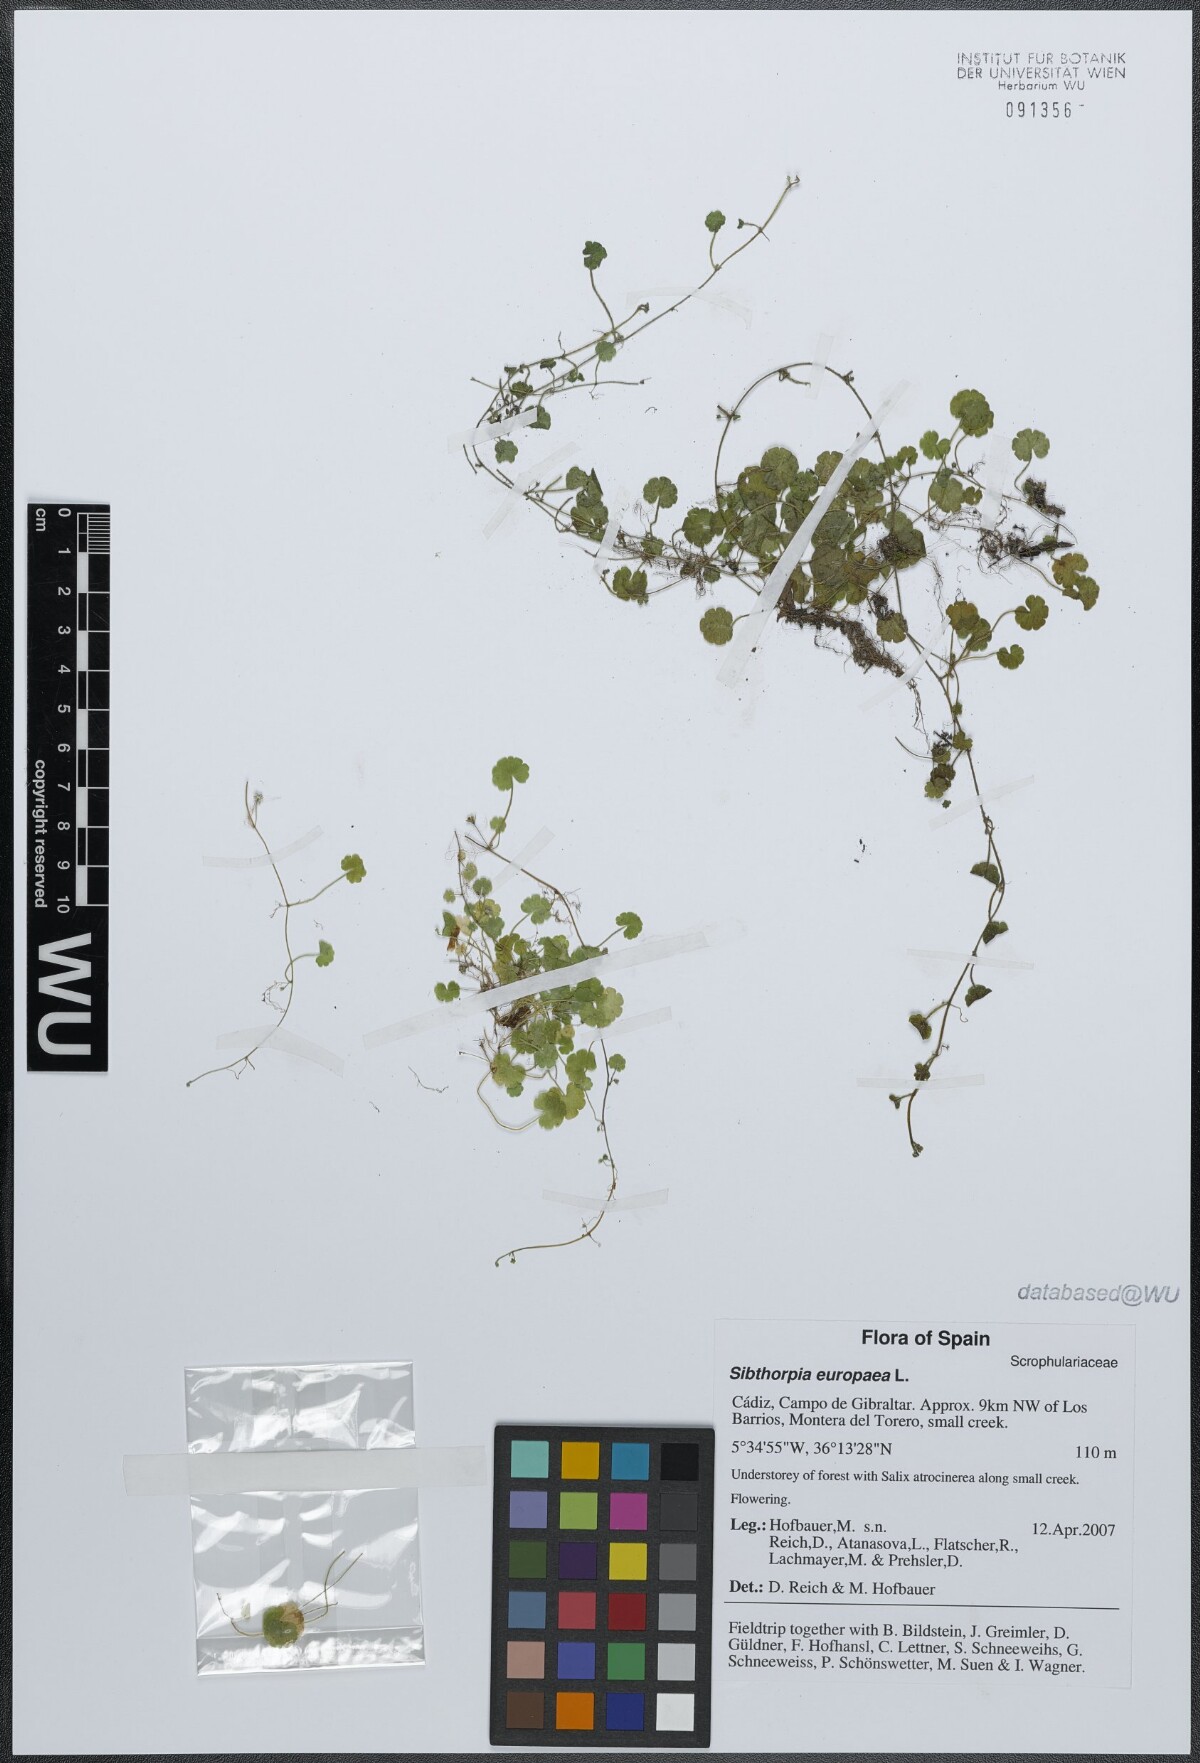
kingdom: Plantae
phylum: Tracheophyta
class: Magnoliopsida
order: Lamiales
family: Plantaginaceae
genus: Sibthorpia
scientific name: Sibthorpia europaea
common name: Cornish moneywort
